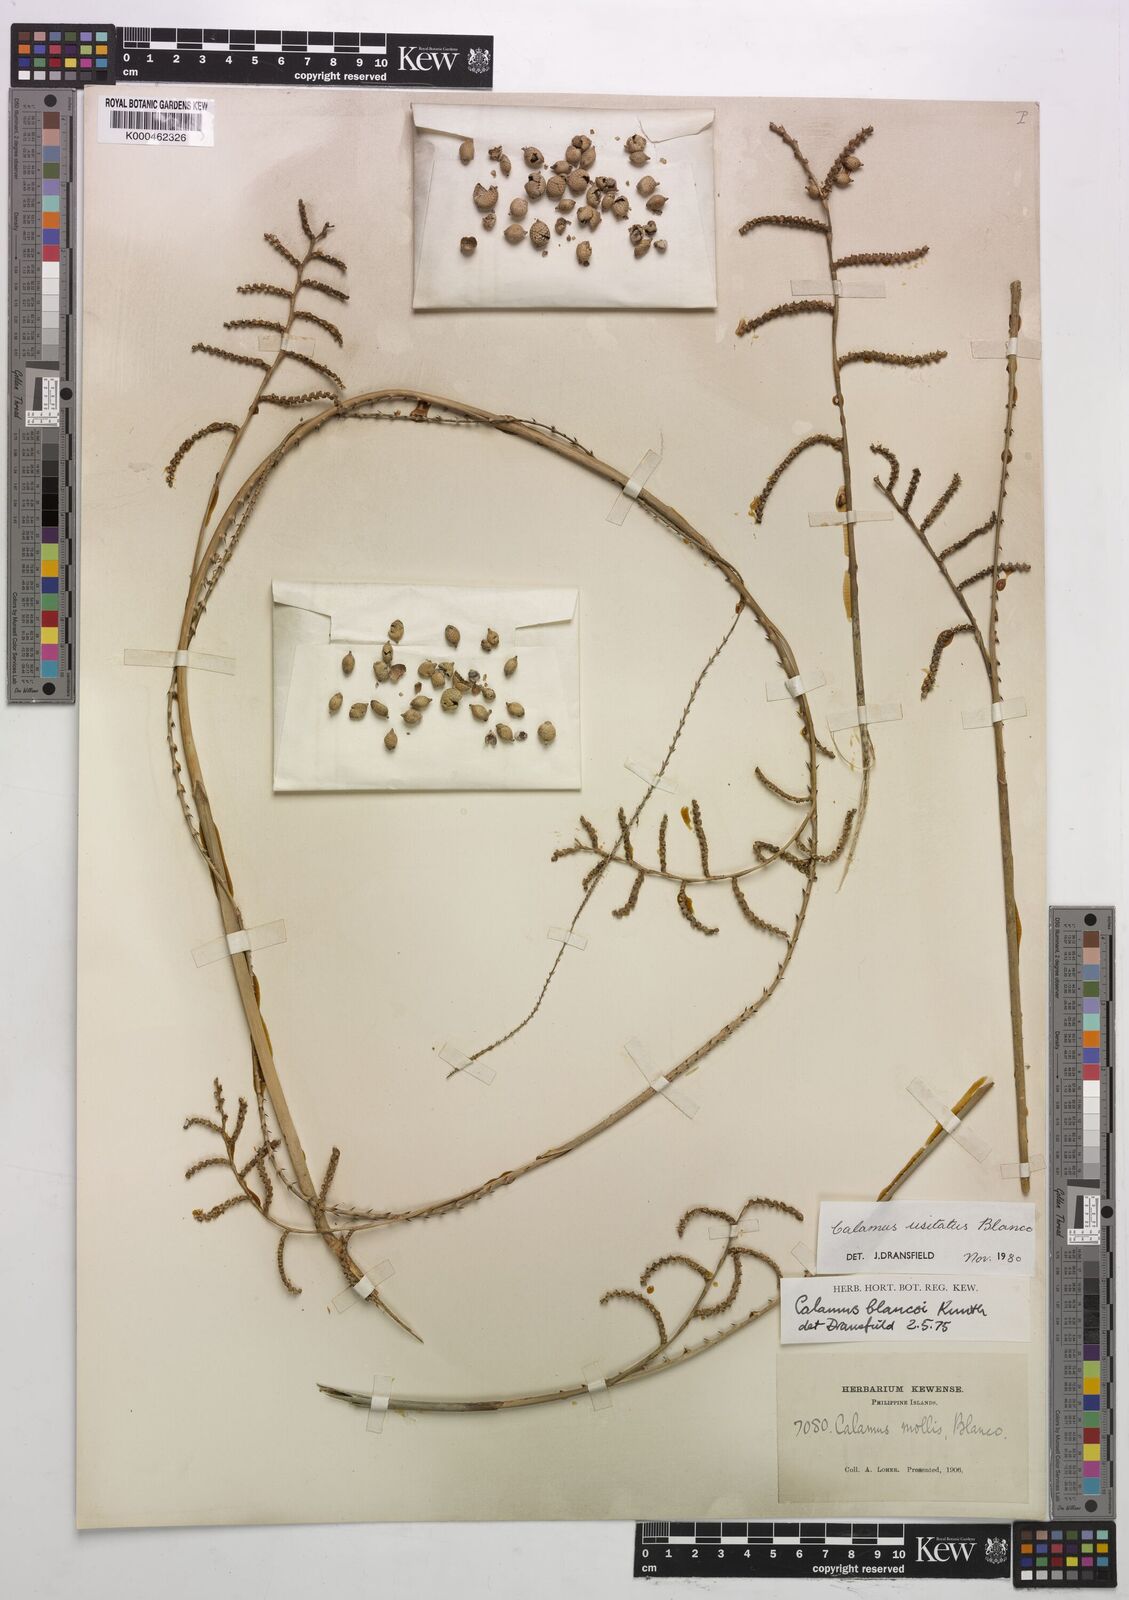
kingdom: Plantae
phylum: Tracheophyta
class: Liliopsida
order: Arecales
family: Arecaceae
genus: Calamus
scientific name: Calamus usitatus
